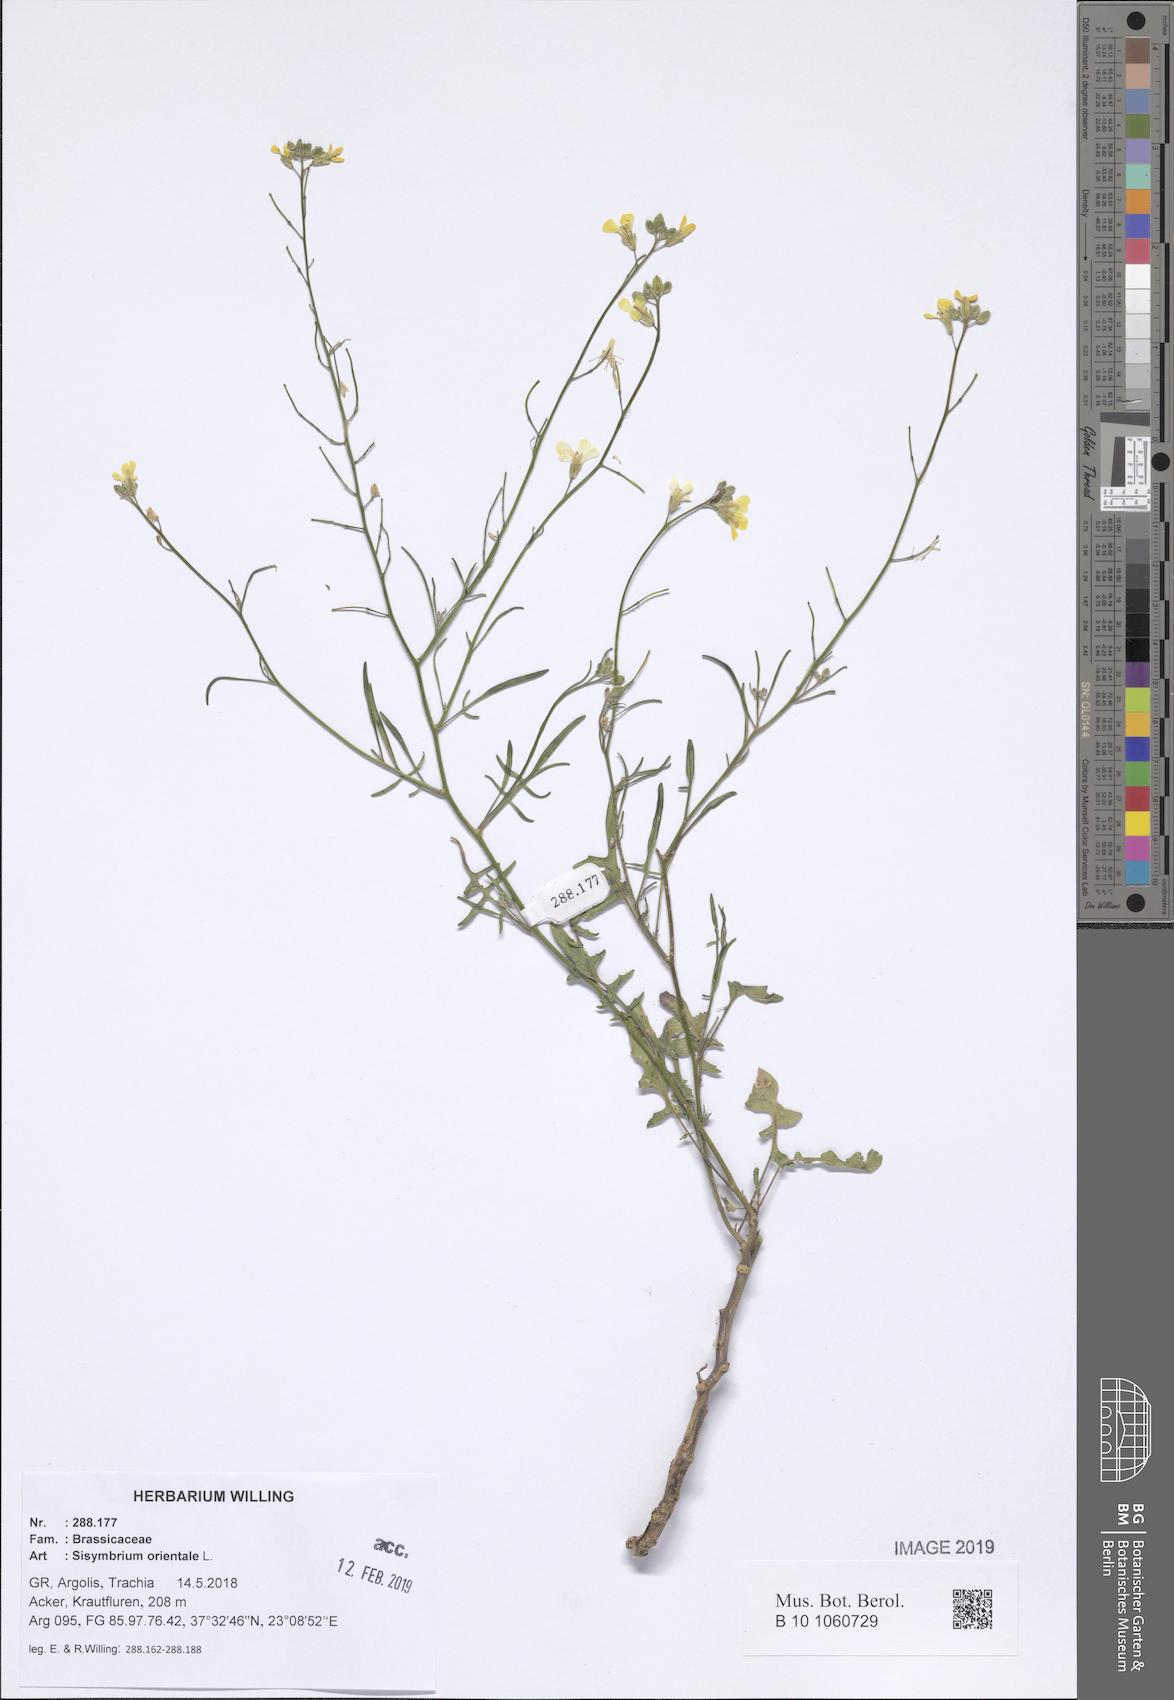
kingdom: Plantae
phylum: Tracheophyta
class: Magnoliopsida
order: Brassicales
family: Brassicaceae
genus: Sisymbrium
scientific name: Sisymbrium orientale
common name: Eastern rocket
